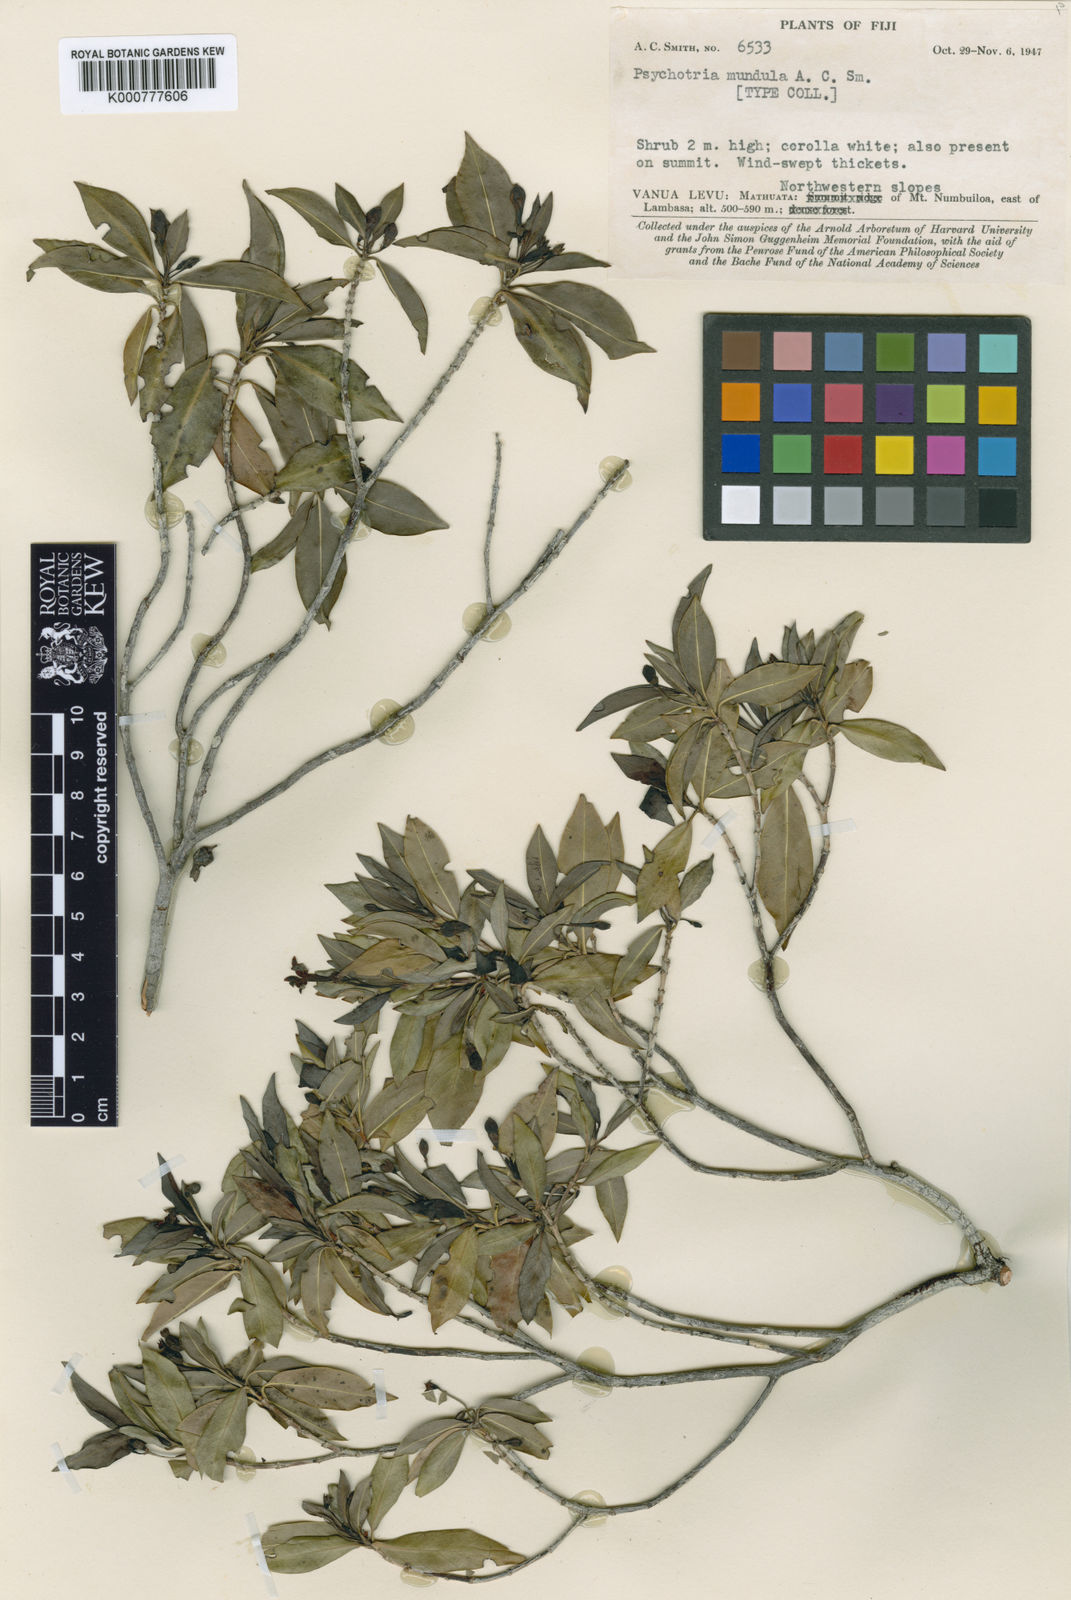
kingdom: Plantae
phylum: Tracheophyta
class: Magnoliopsida
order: Gentianales
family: Rubiaceae
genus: Psychotria
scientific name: Psychotria macrocalyx
